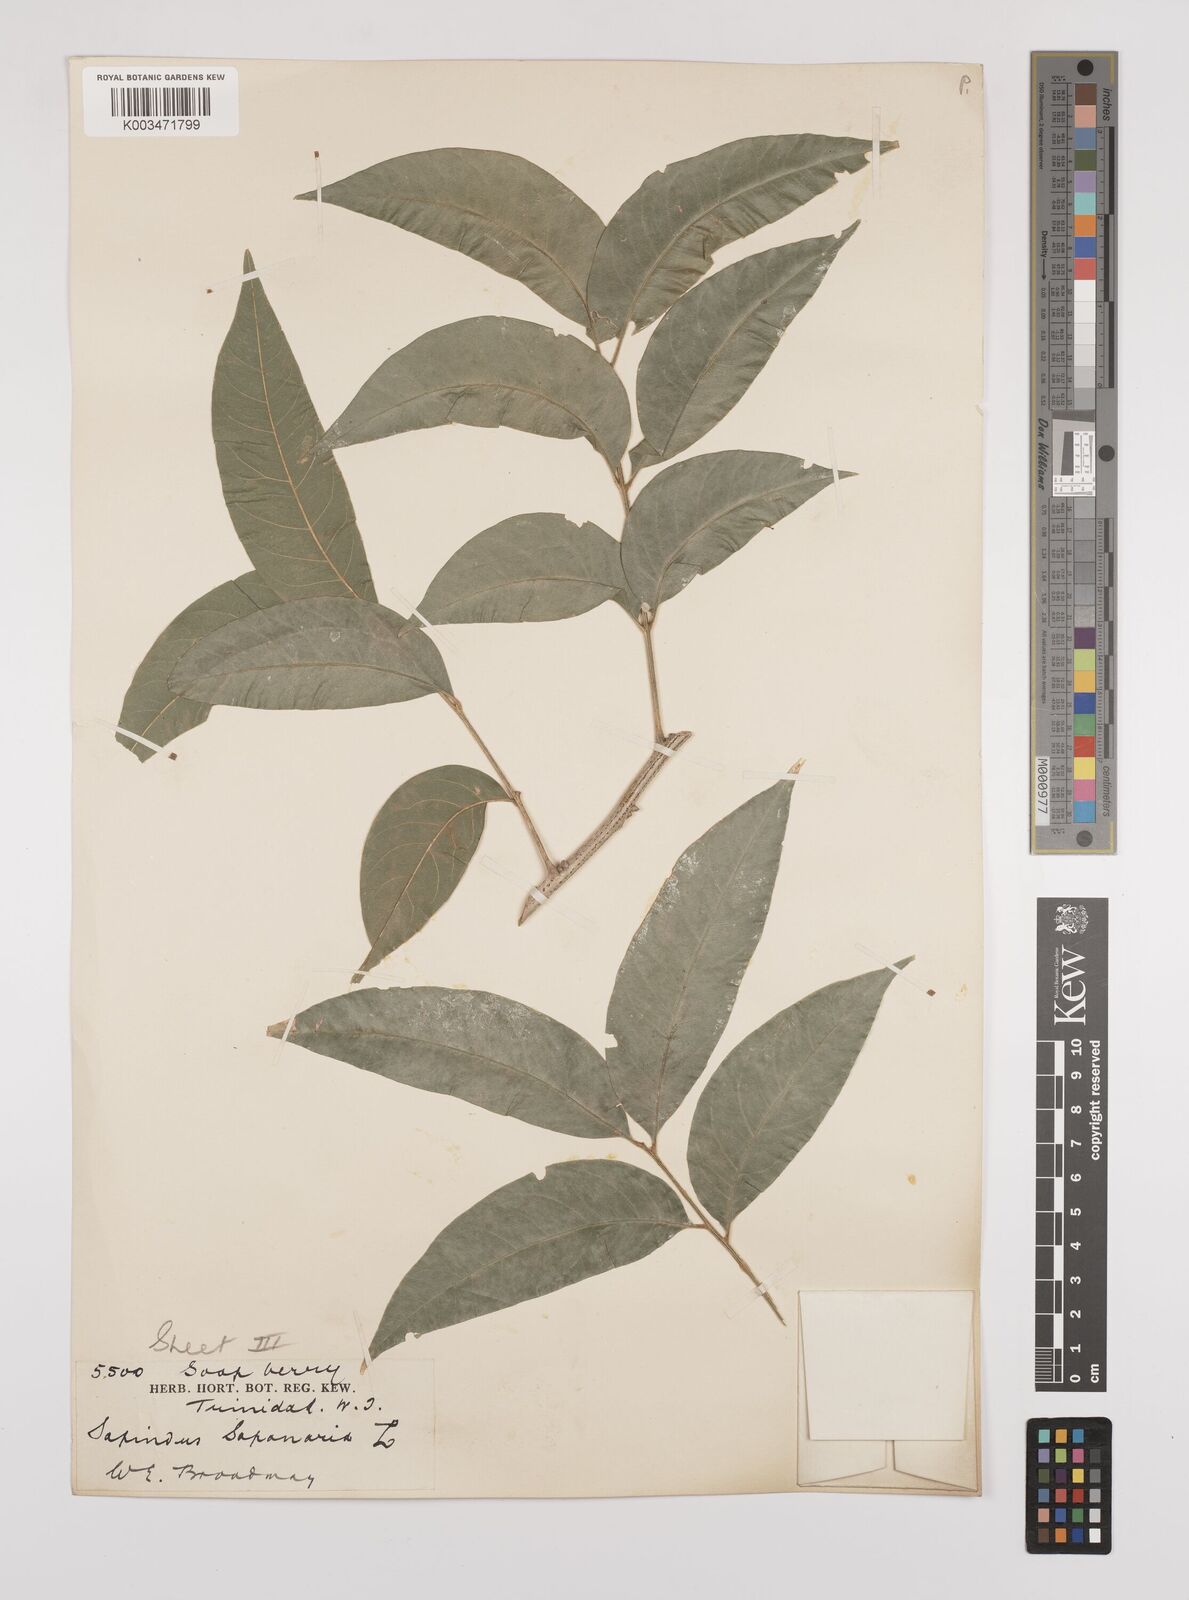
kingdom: Plantae
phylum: Tracheophyta
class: Magnoliopsida
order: Sapindales
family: Sapindaceae
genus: Sapindus
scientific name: Sapindus saponaria
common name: Wingleaf soapberry
